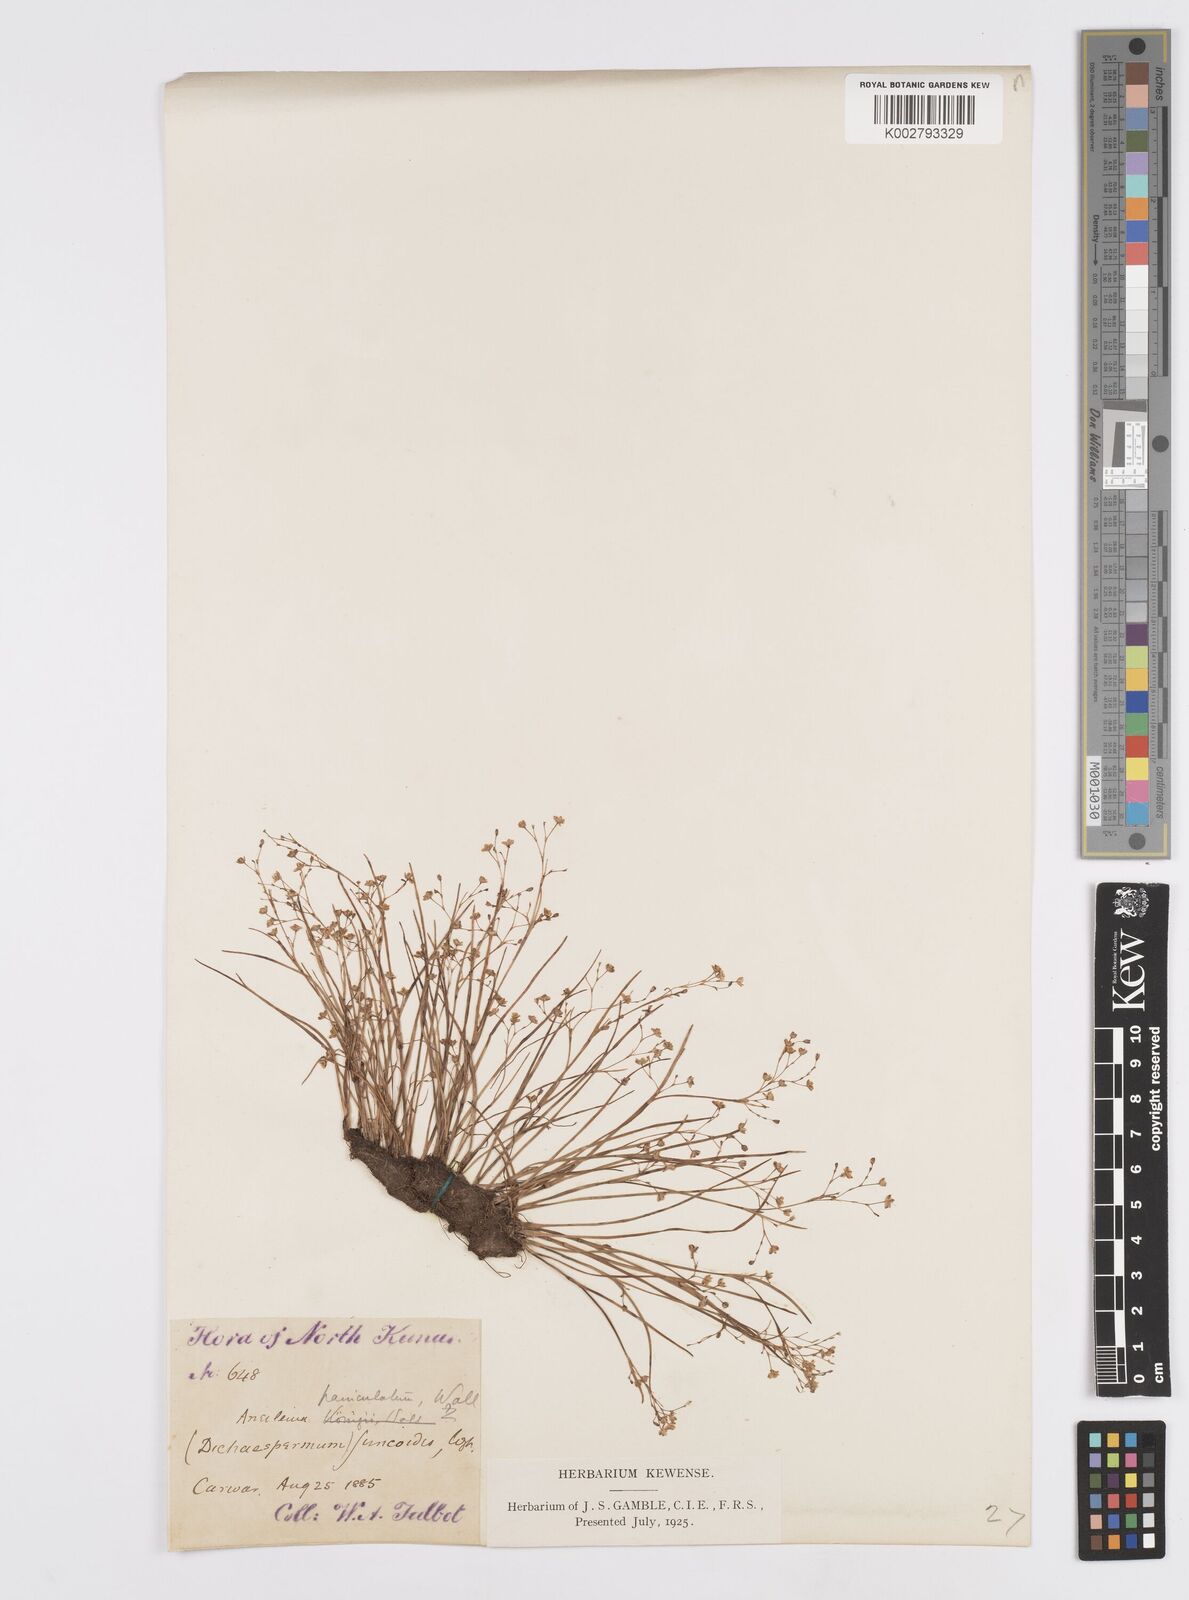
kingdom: Plantae
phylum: Tracheophyta
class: Liliopsida
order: Commelinales
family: Commelinaceae
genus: Murdannia
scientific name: Murdannia semiteres
